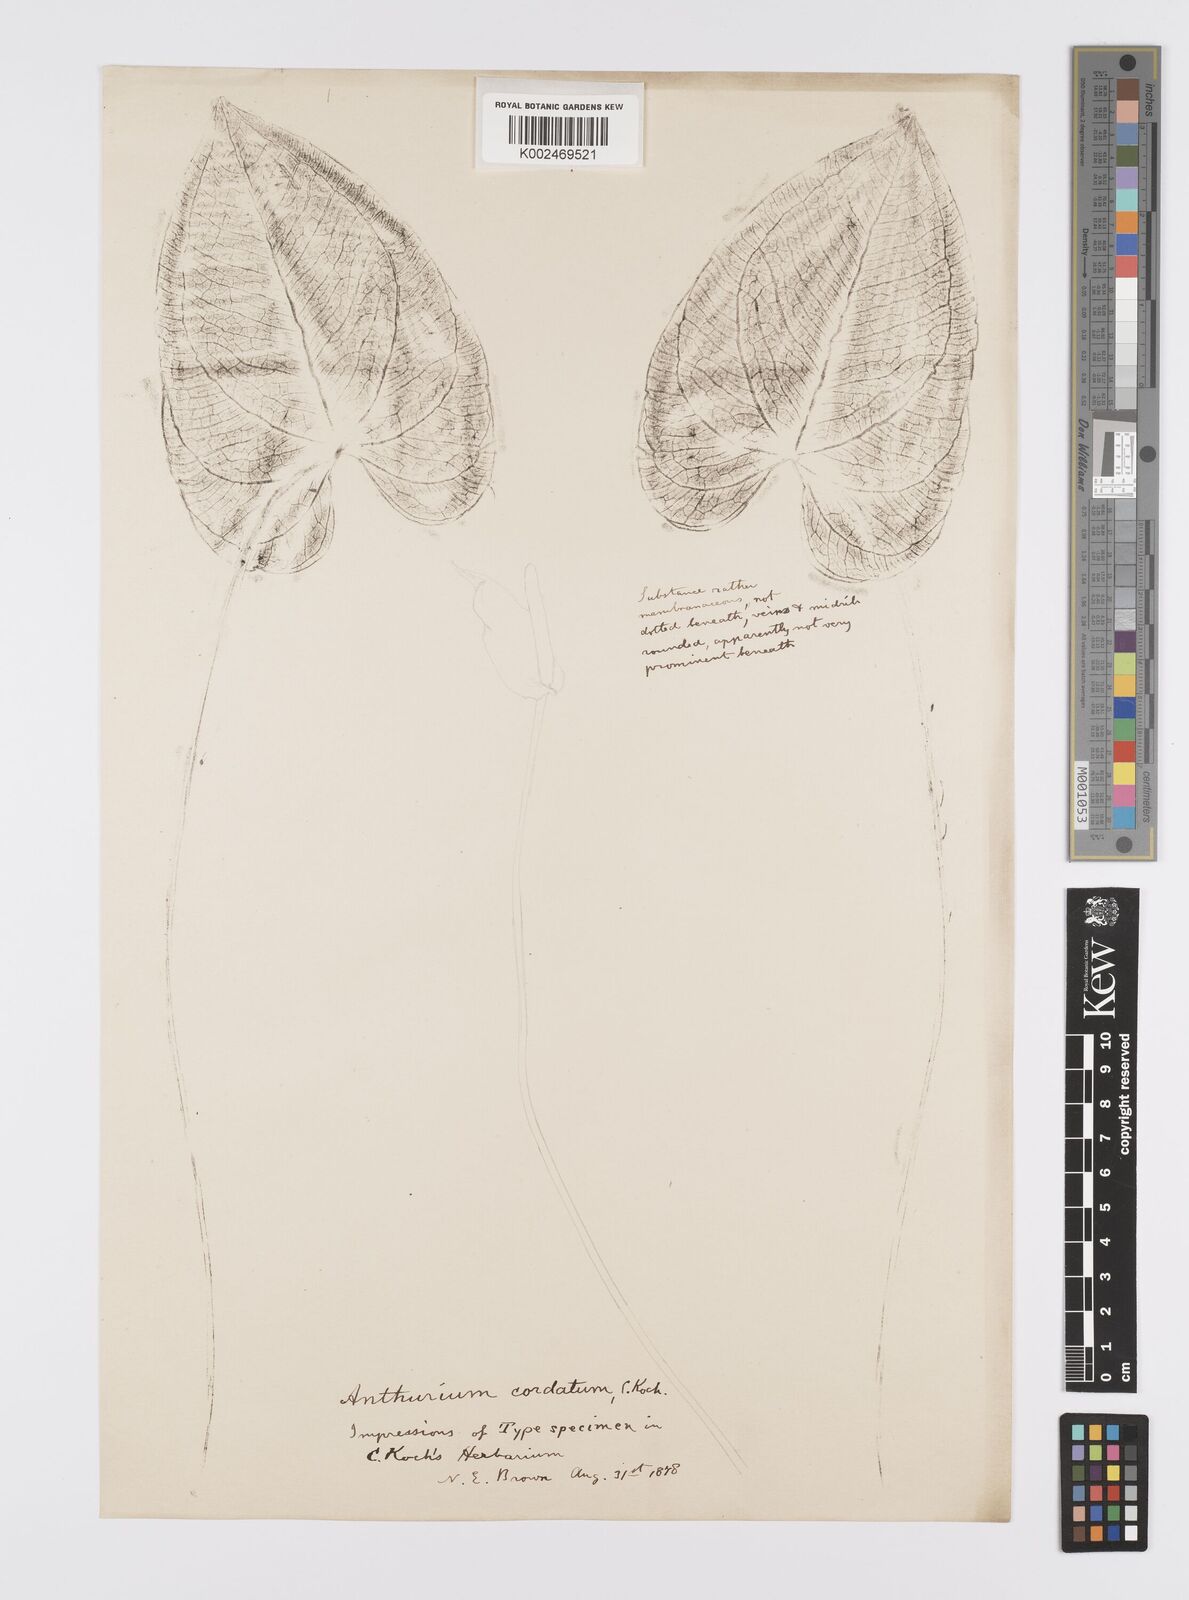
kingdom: Plantae
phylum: Tracheophyta
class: Liliopsida
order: Alismatales
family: Araceae
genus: Anthurium
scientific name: Anthurium augustinum
